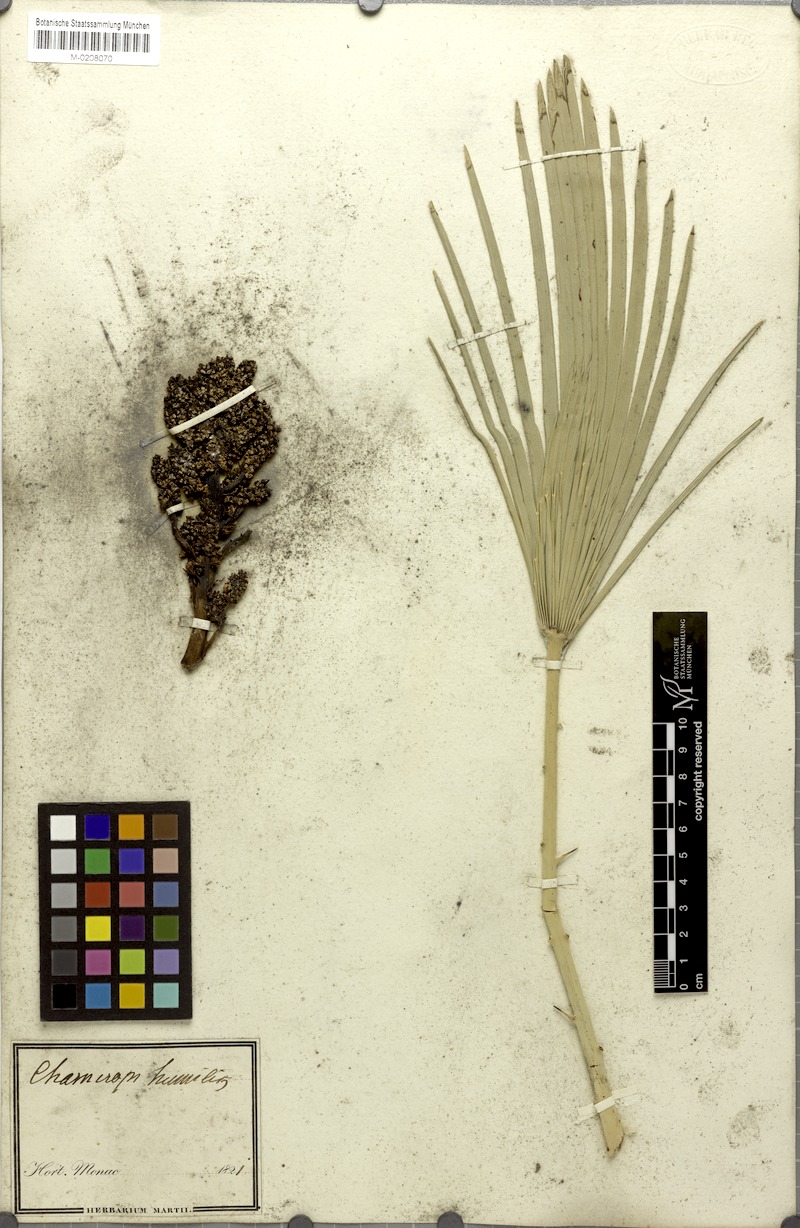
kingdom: Plantae
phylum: Tracheophyta
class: Liliopsida
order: Arecales
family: Arecaceae
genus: Chamaerops
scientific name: Chamaerops humilis
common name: Dwarf fan palm
